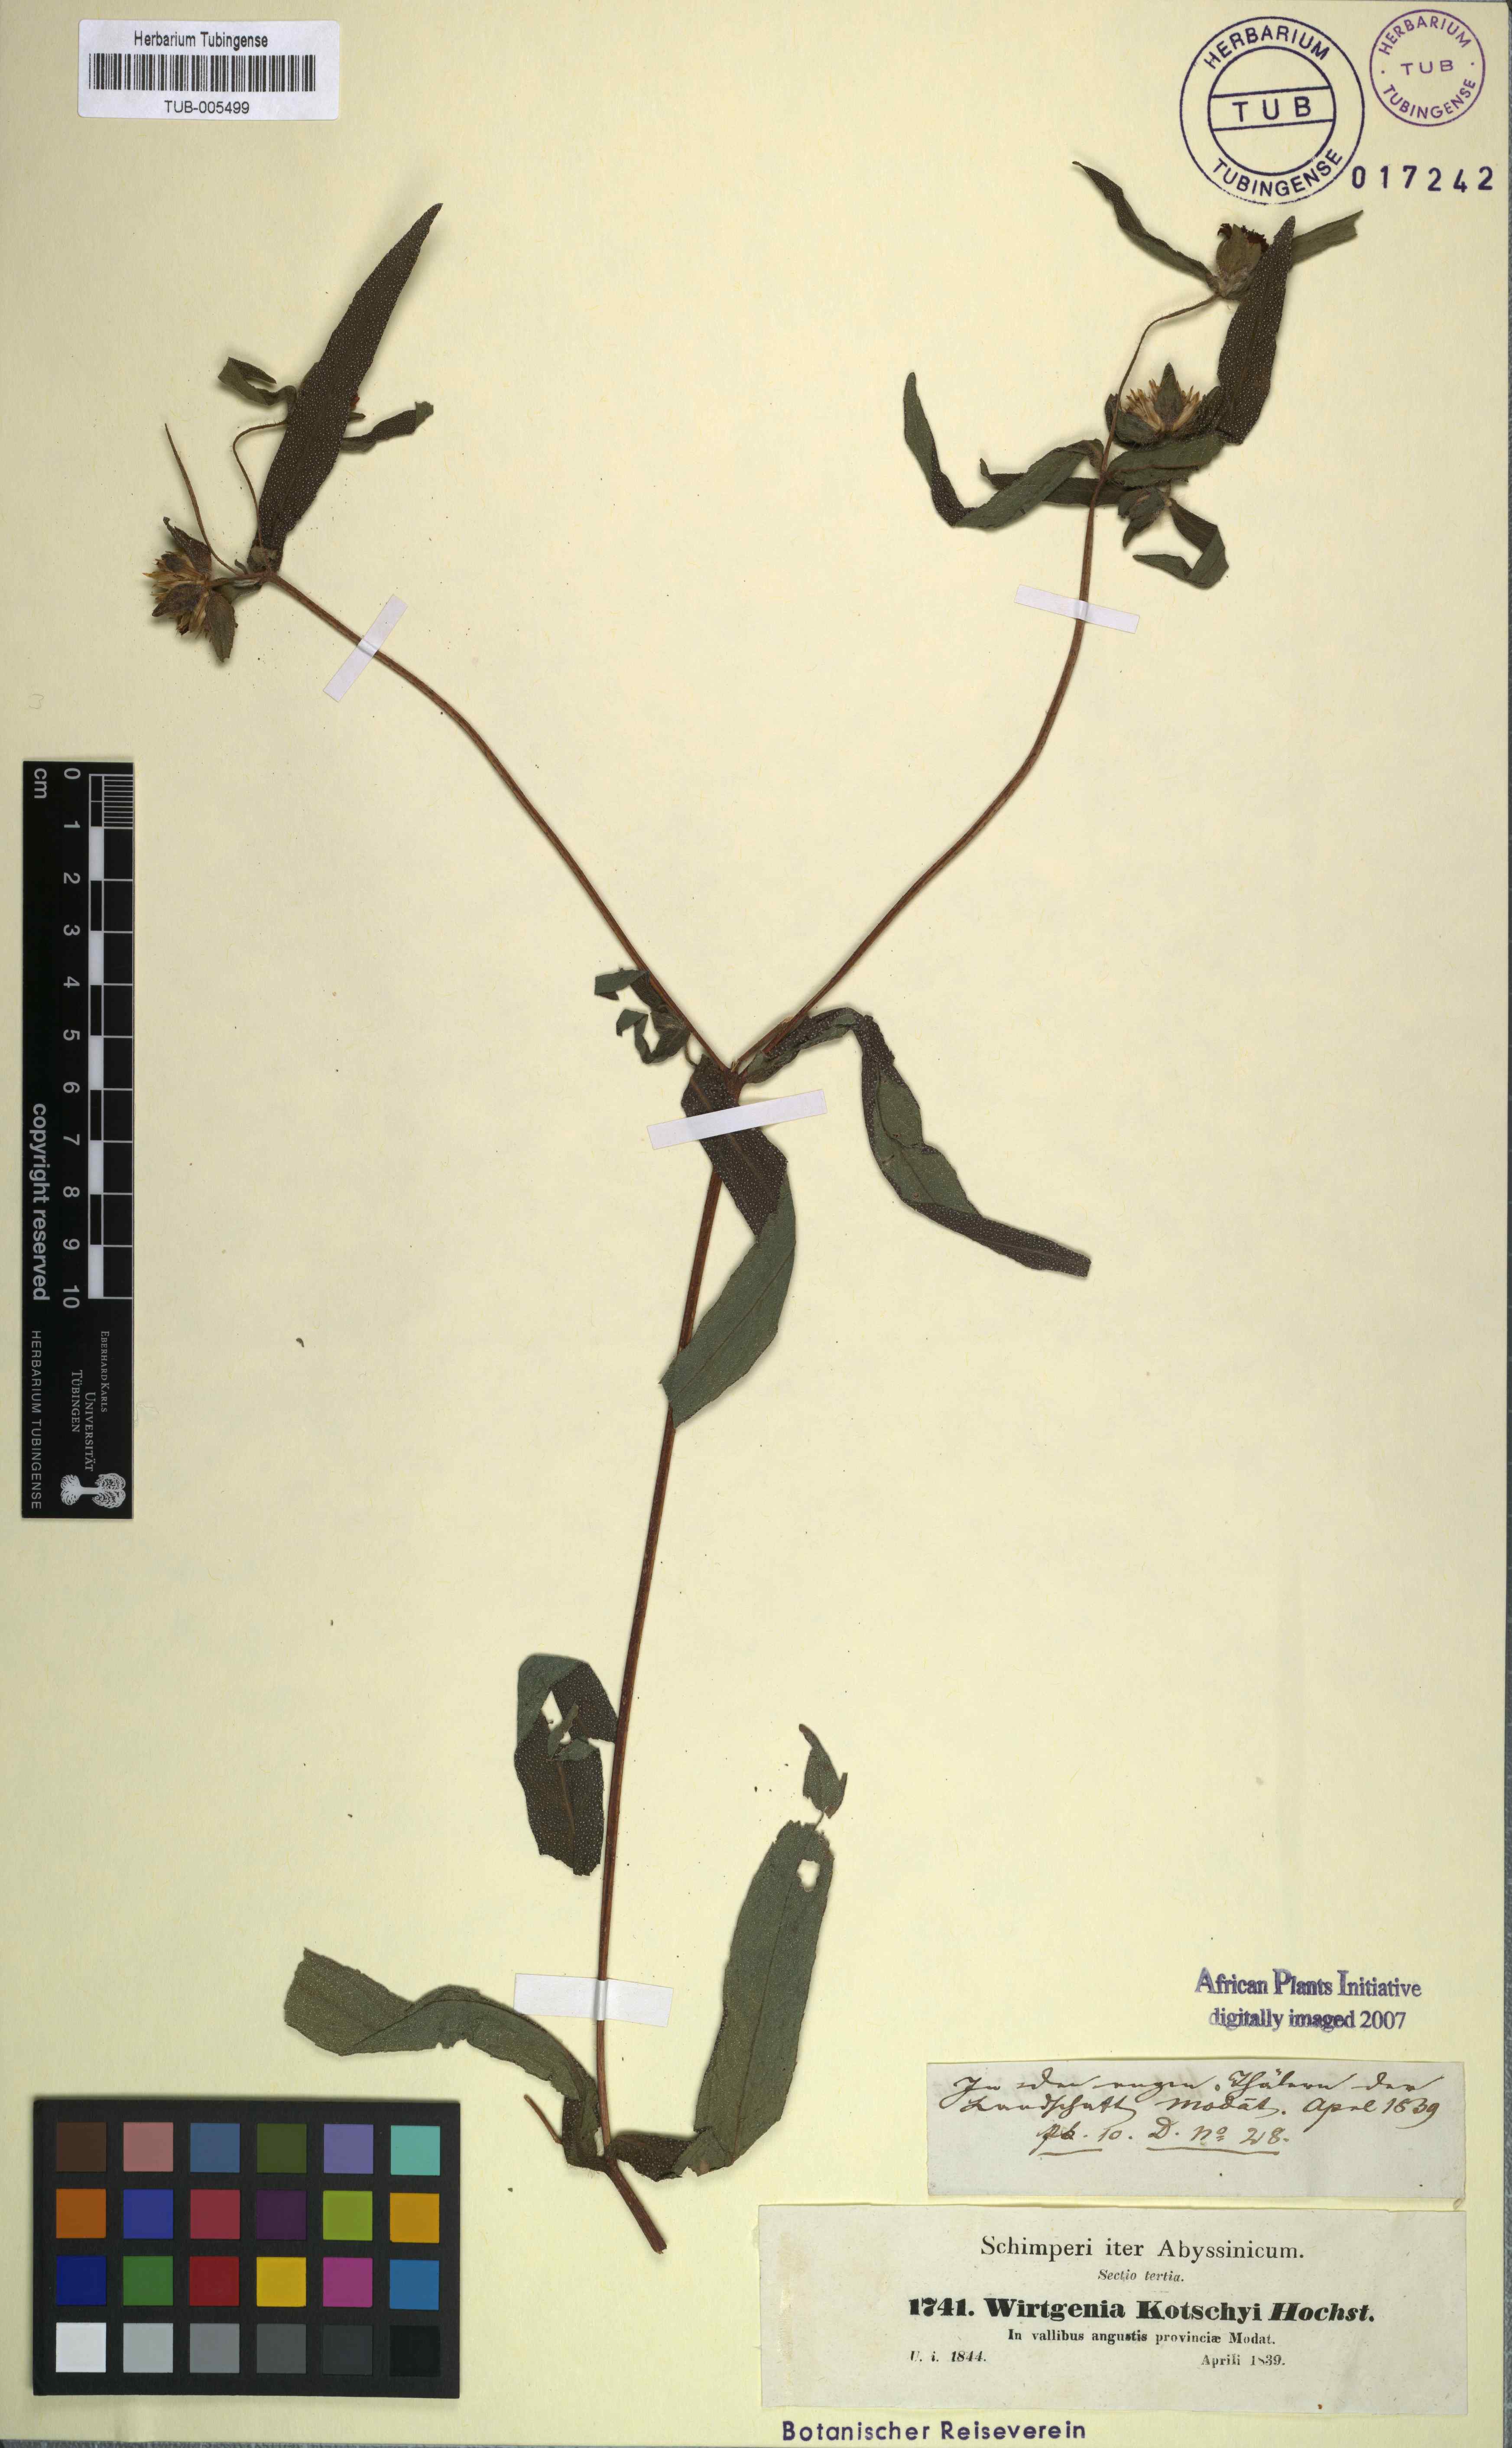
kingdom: Plantae
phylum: Tracheophyta
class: Magnoliopsida
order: Asterales
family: Asteraceae
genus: Aspilia
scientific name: Aspilia kotschyi
